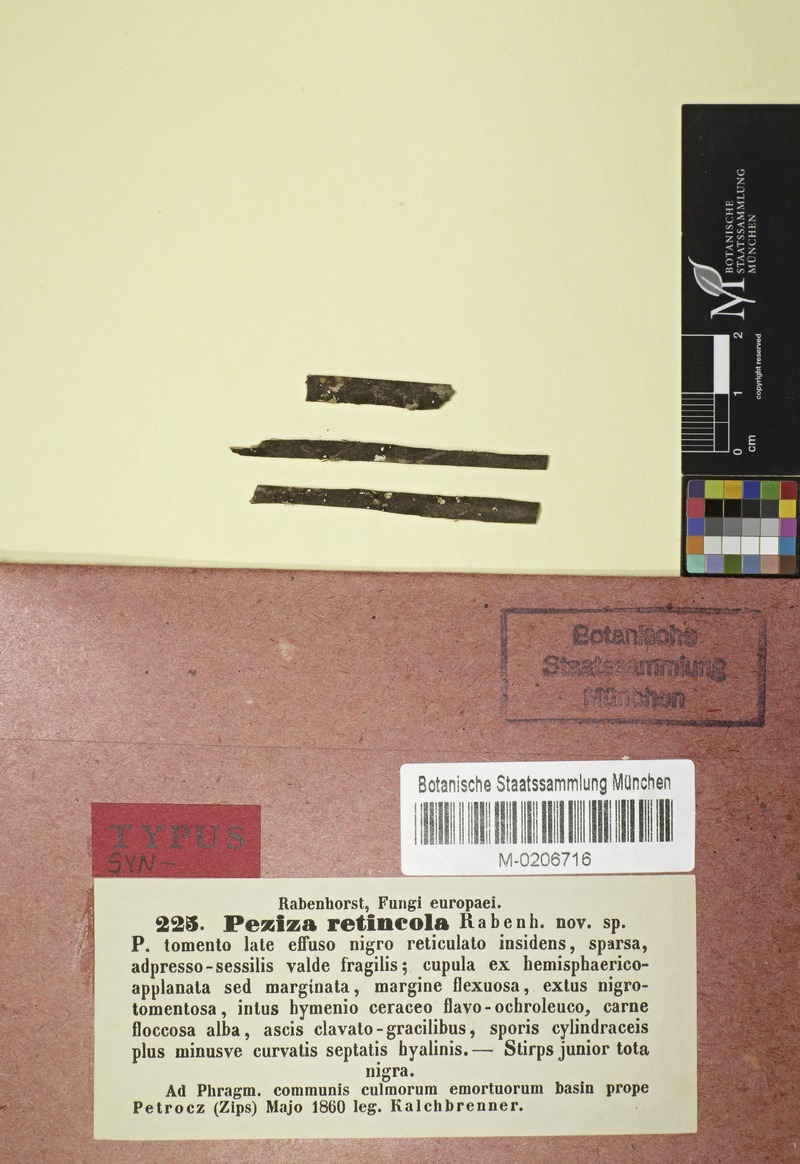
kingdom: Fungi
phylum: Ascomycota
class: Leotiomycetes
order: Helotiales
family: Mollisiaceae
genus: Trichobelonium
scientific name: Trichobelonium kneiffii
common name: Reed mat disco
